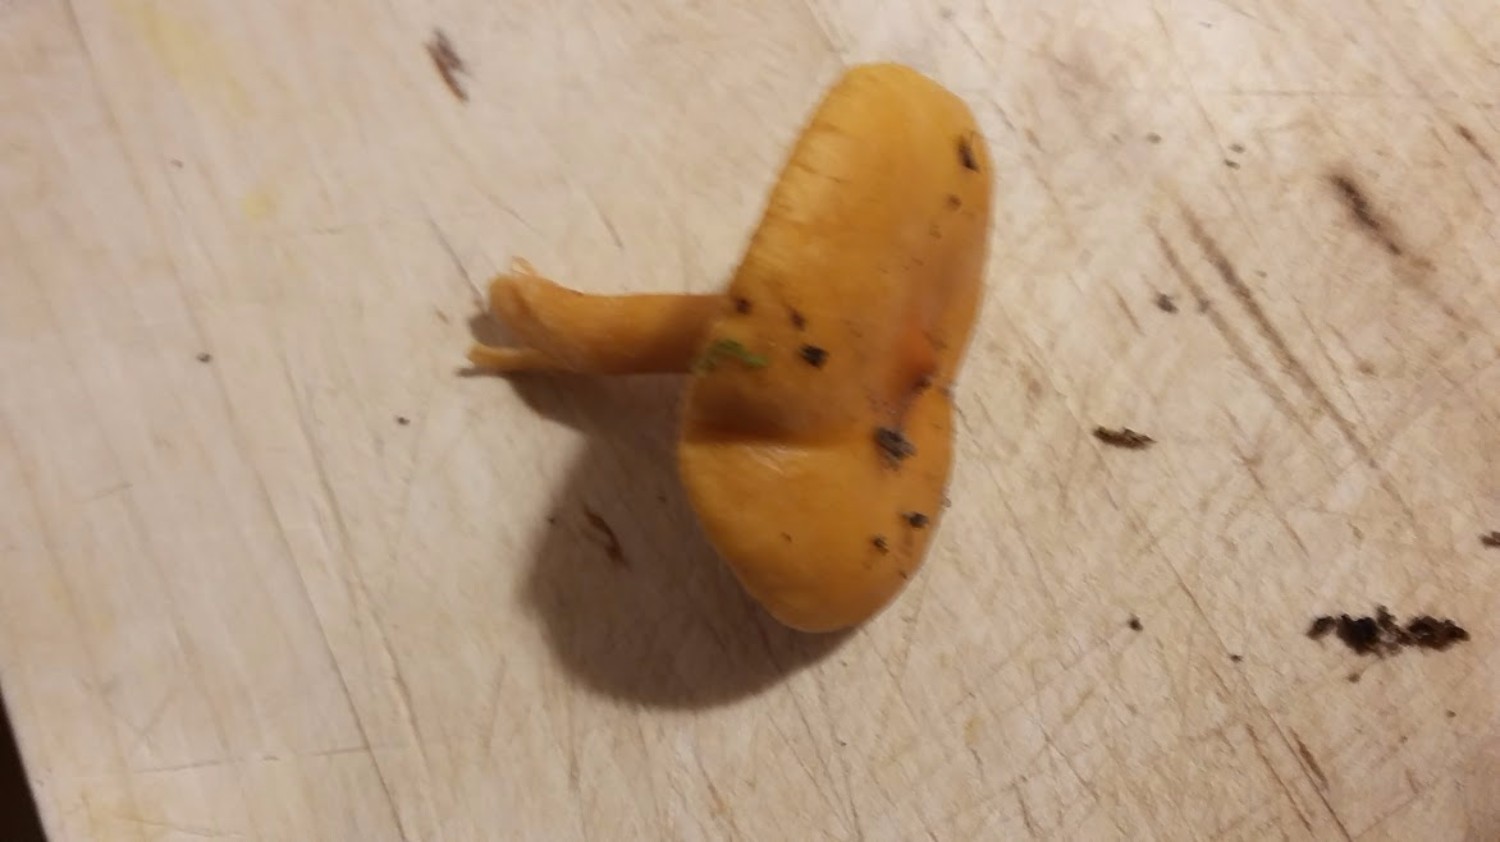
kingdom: Fungi
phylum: Basidiomycota
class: Agaricomycetes
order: Russulales
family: Russulaceae
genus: Lactarius
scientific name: Lactarius aurantiacus
